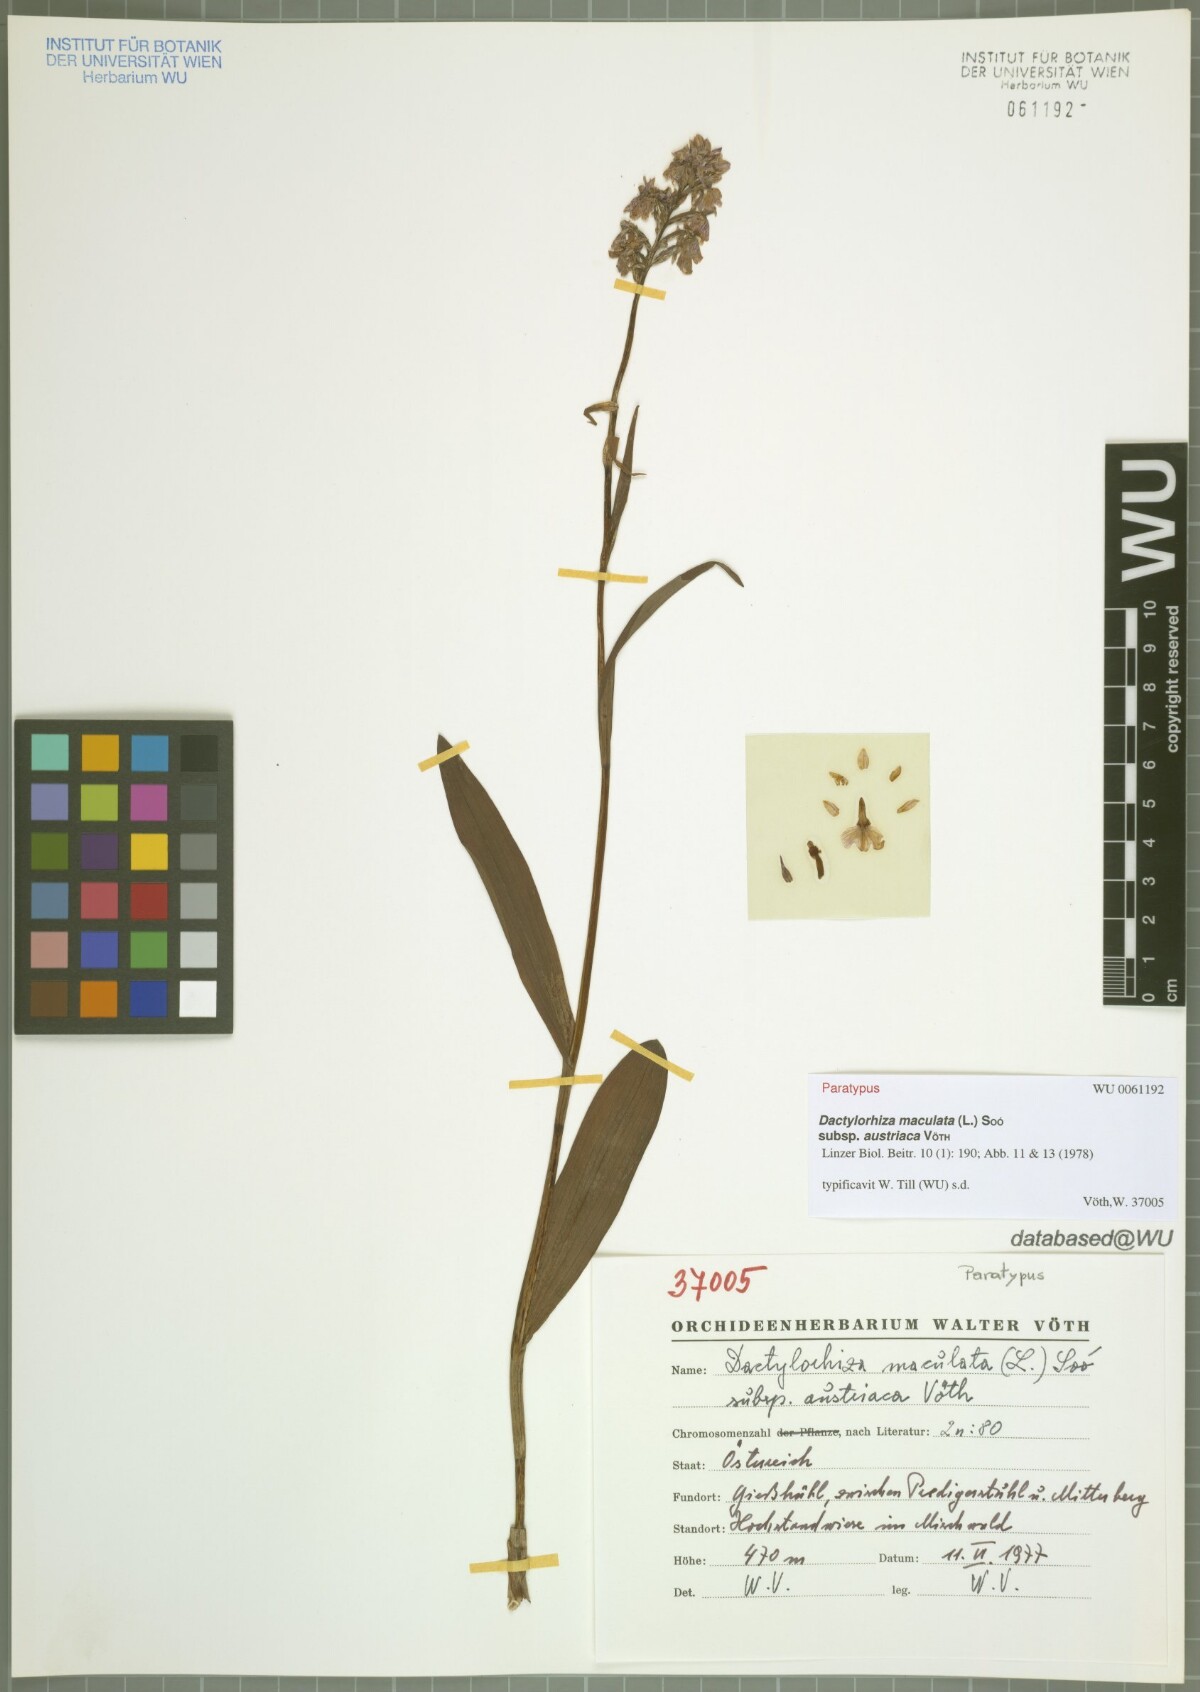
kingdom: Plantae
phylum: Tracheophyta
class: Liliopsida
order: Asparagales
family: Orchidaceae
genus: Dactylorhiza
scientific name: Dactylorhiza maculata
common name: Heath spotted-orchid
